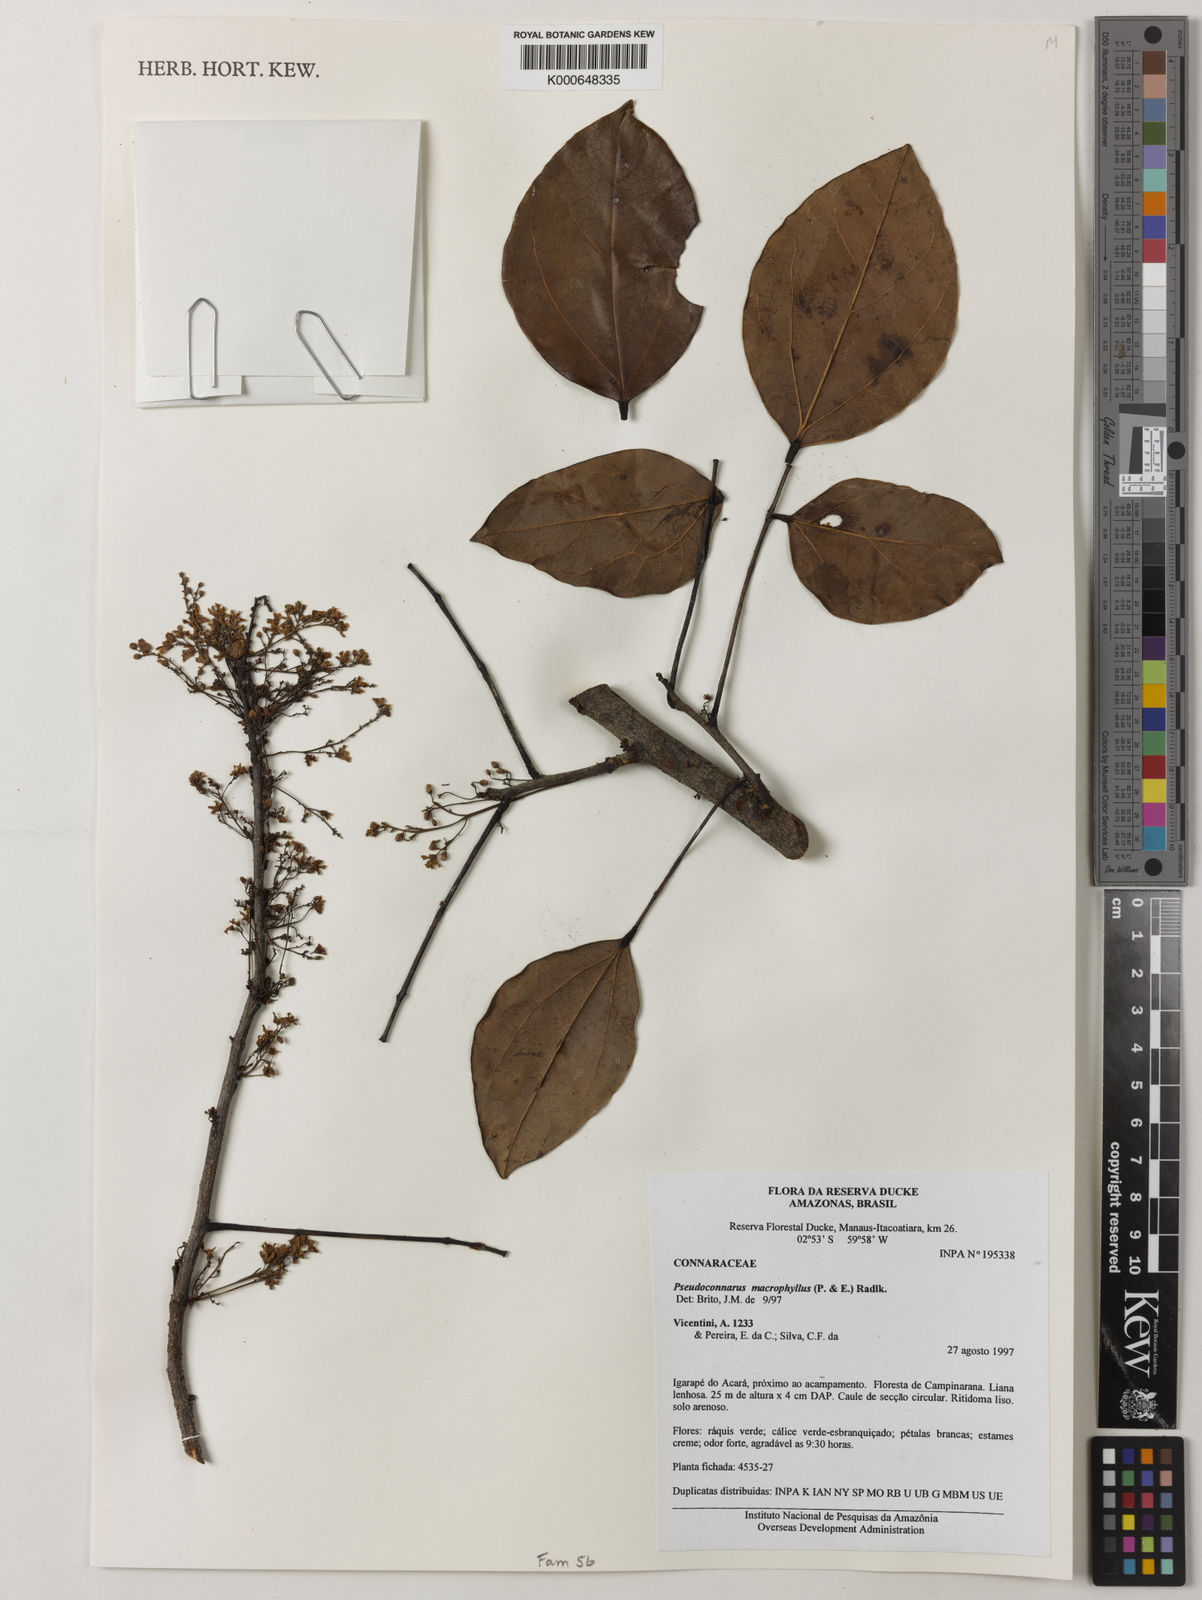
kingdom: Plantae
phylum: Tracheophyta
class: Magnoliopsida
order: Oxalidales
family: Connaraceae
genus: Pseudoconnarus
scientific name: Pseudoconnarus macrophyllus
